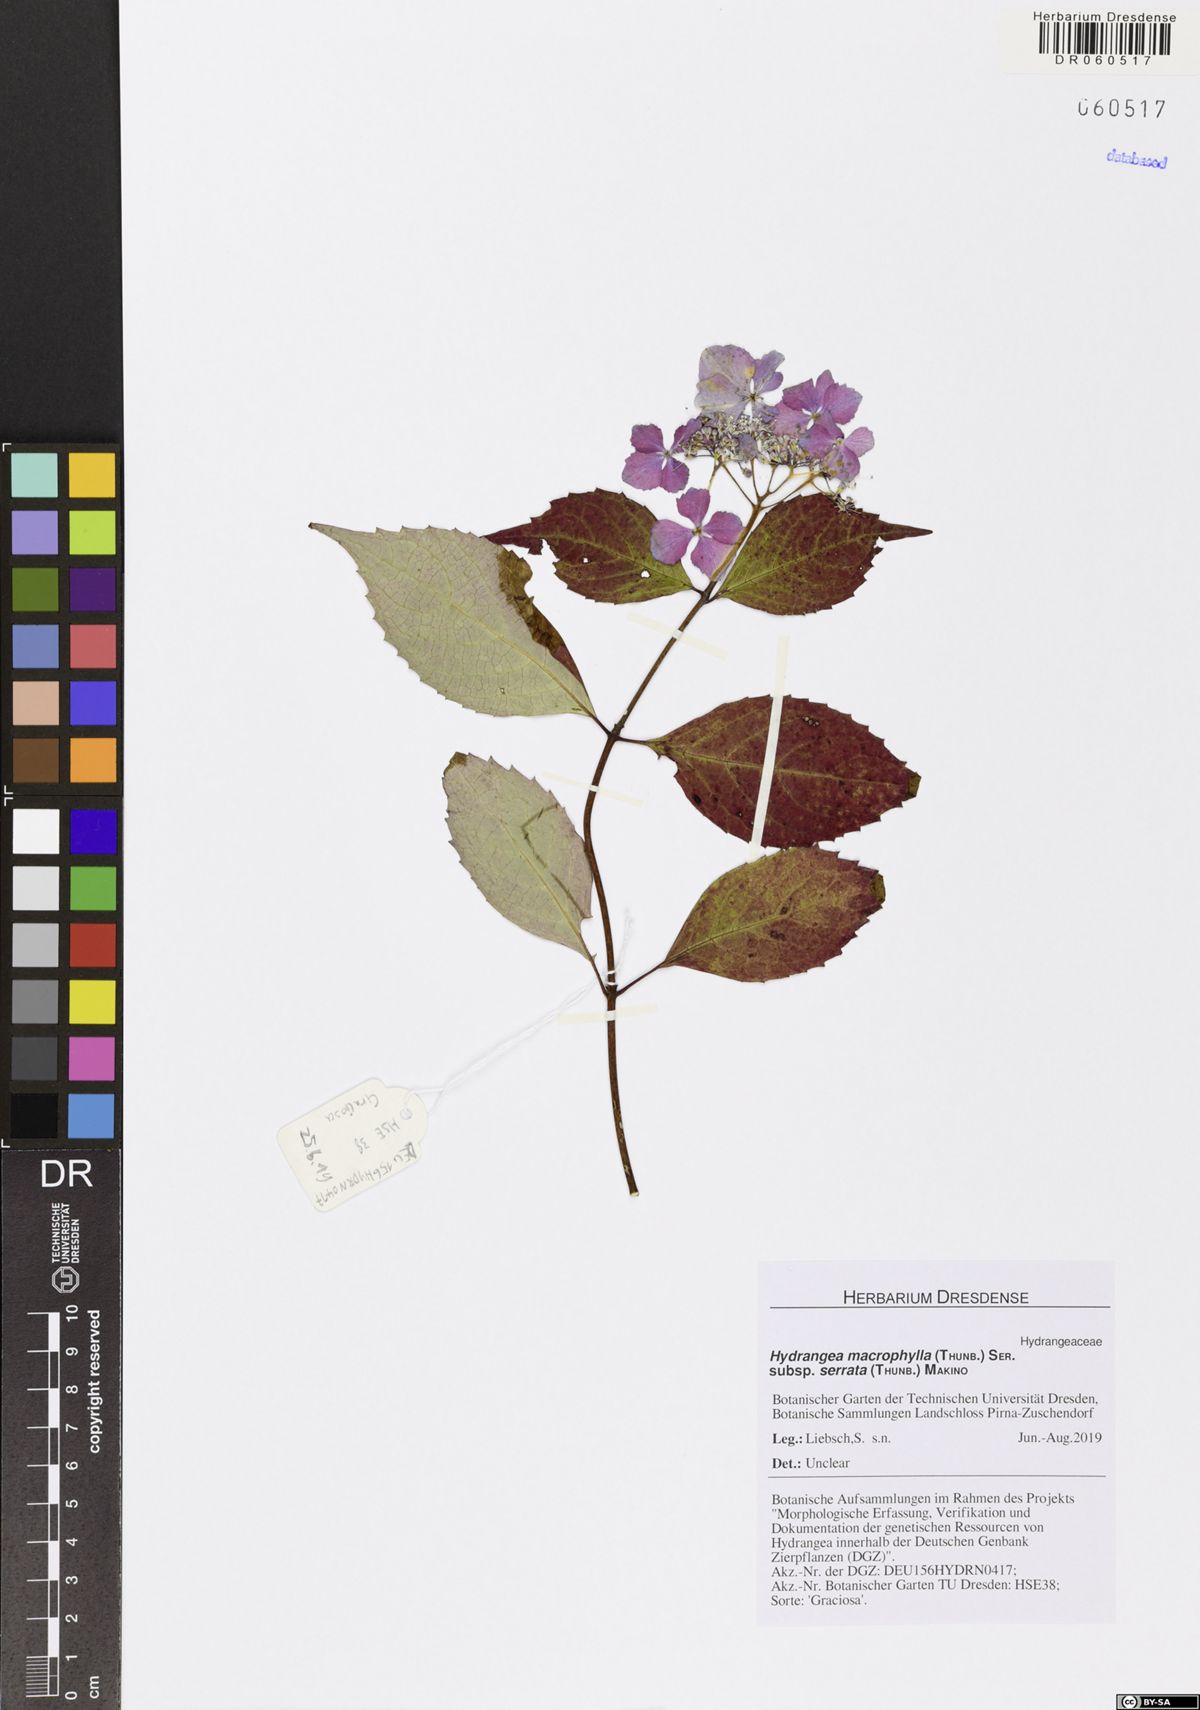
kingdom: Plantae
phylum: Tracheophyta
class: Magnoliopsida
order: Cornales
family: Hydrangeaceae
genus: Hydrangea
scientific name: Hydrangea serrata
